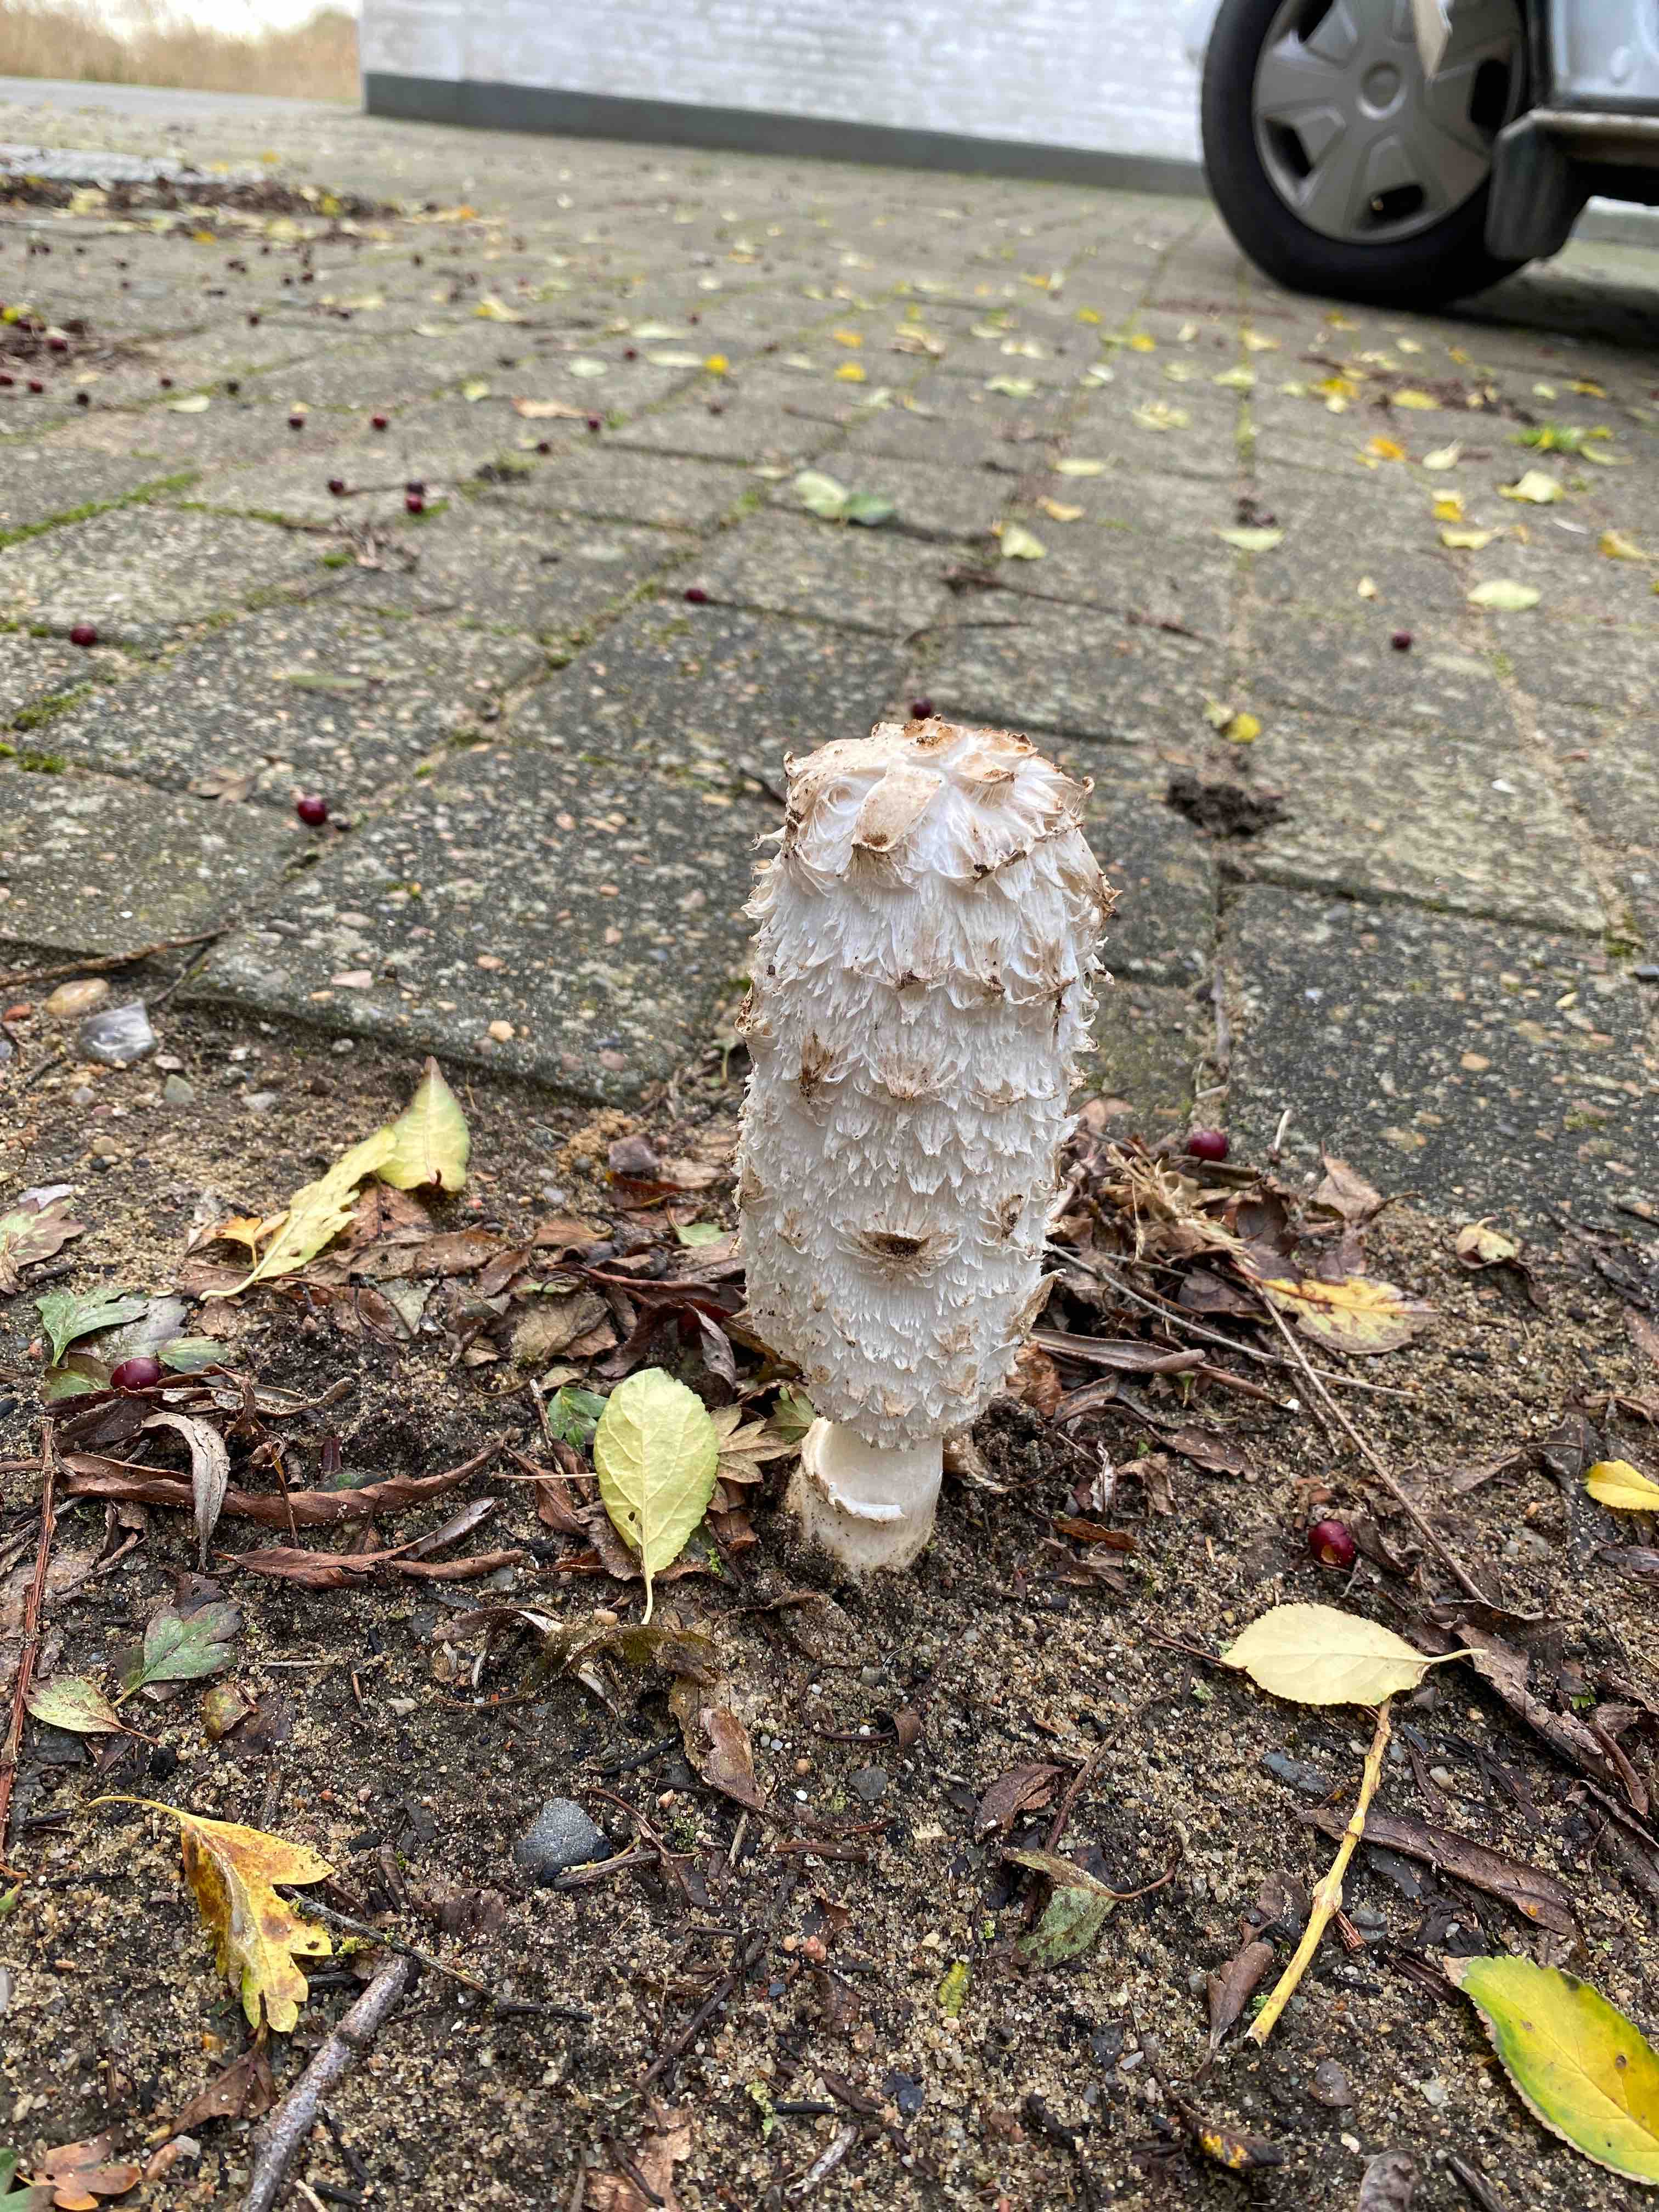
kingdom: Fungi
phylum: Basidiomycota
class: Agaricomycetes
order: Agaricales
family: Agaricaceae
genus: Coprinus
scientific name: Coprinus comatus
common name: stor parykhat
